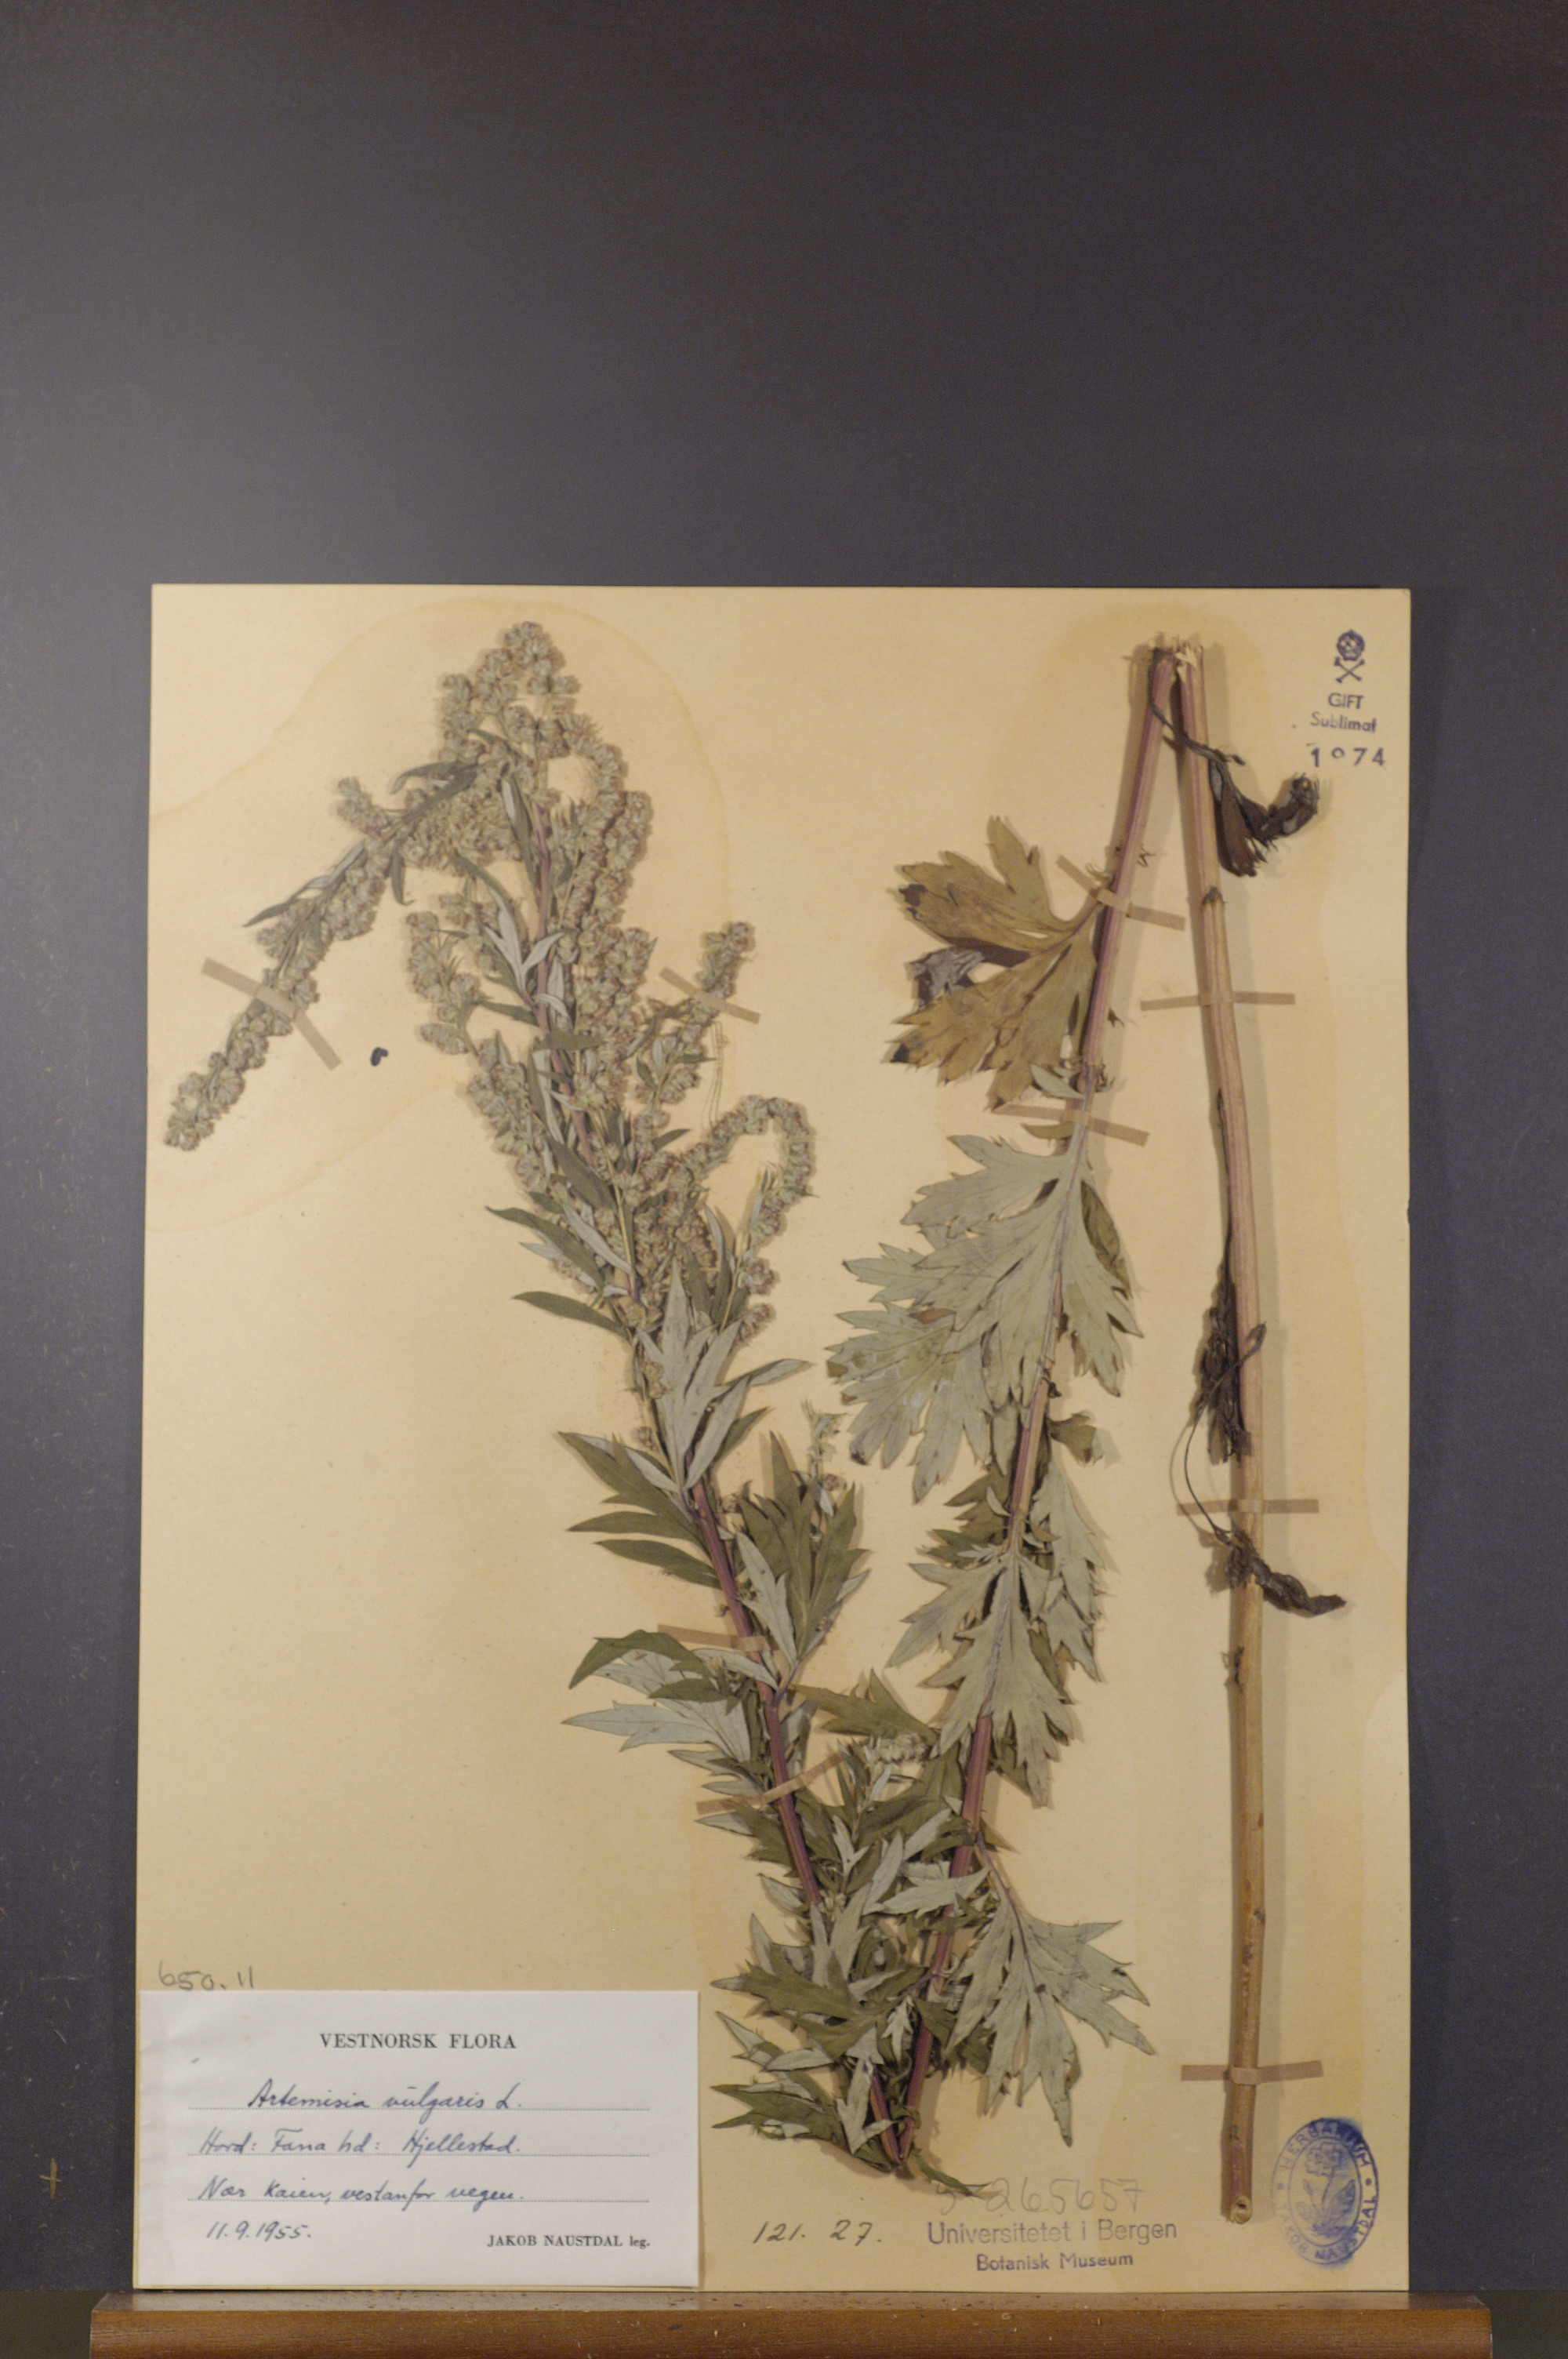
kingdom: Plantae
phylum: Tracheophyta
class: Magnoliopsida
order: Asterales
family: Asteraceae
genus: Artemisia
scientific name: Artemisia vulgaris
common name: Mugwort
